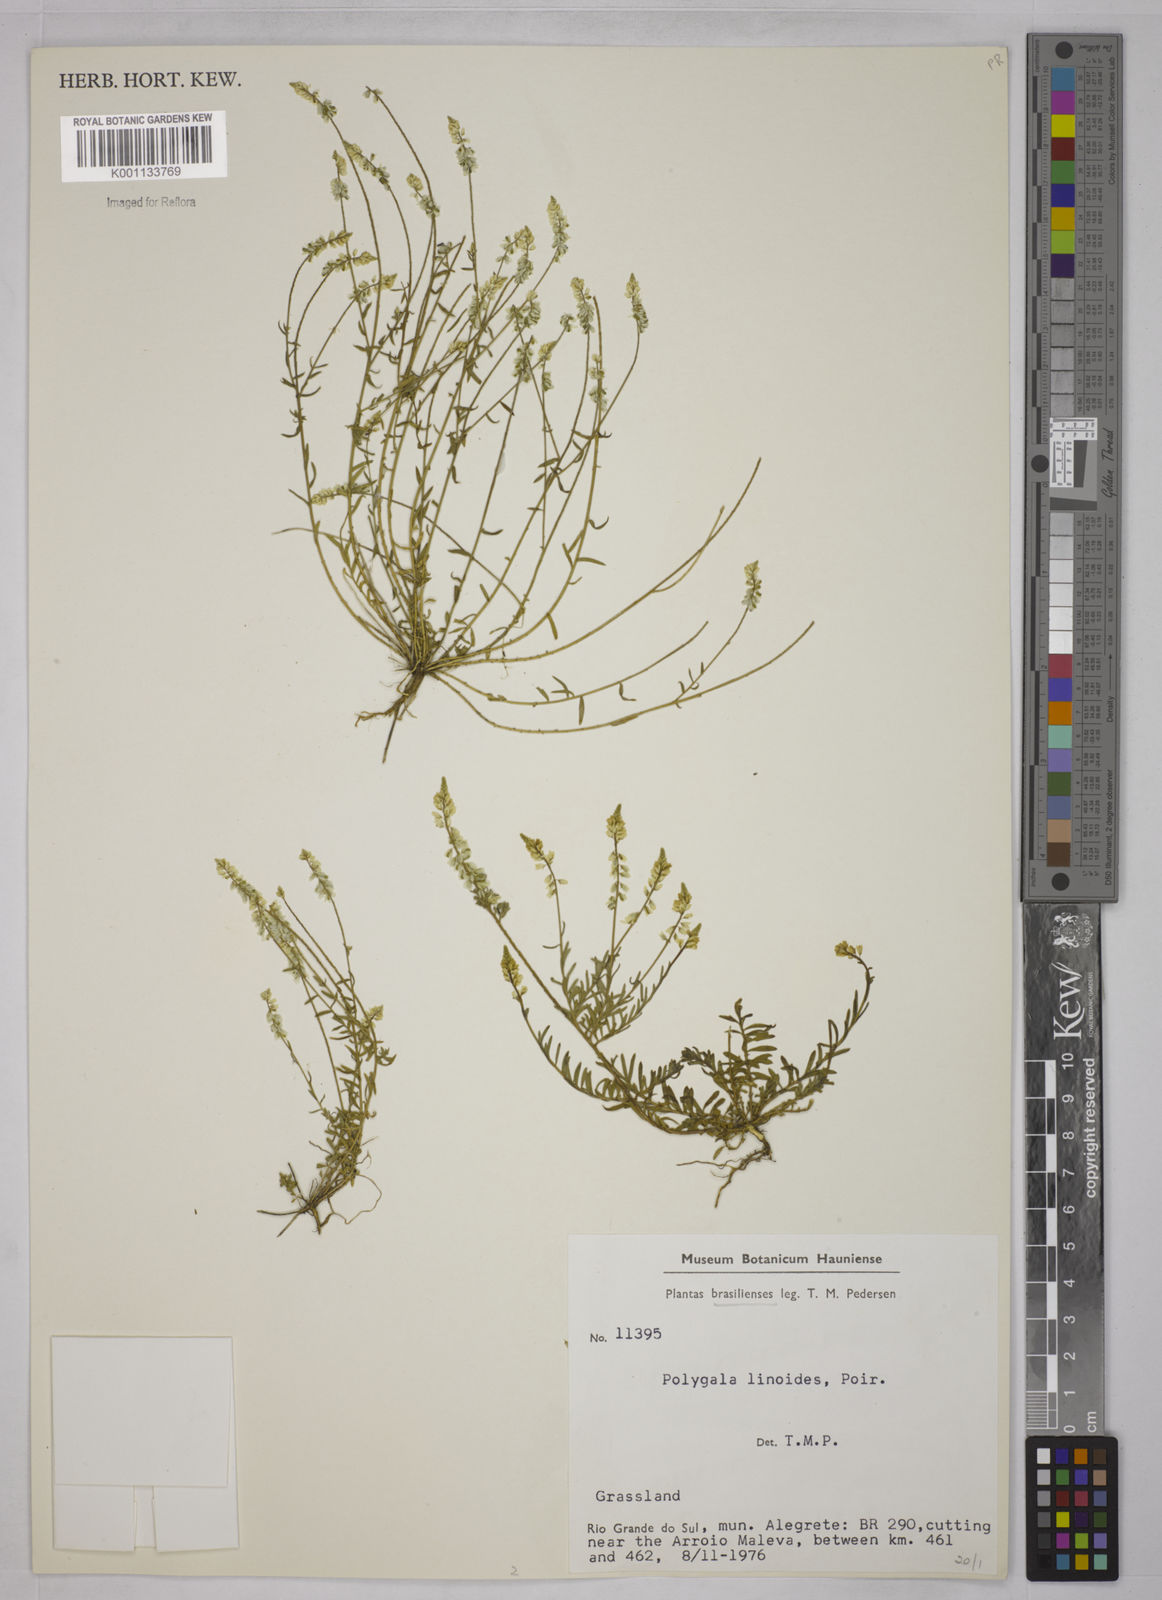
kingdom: Plantae
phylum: Tracheophyta
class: Magnoliopsida
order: Fabales
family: Polygalaceae
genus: Polygala
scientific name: Polygala linoides
